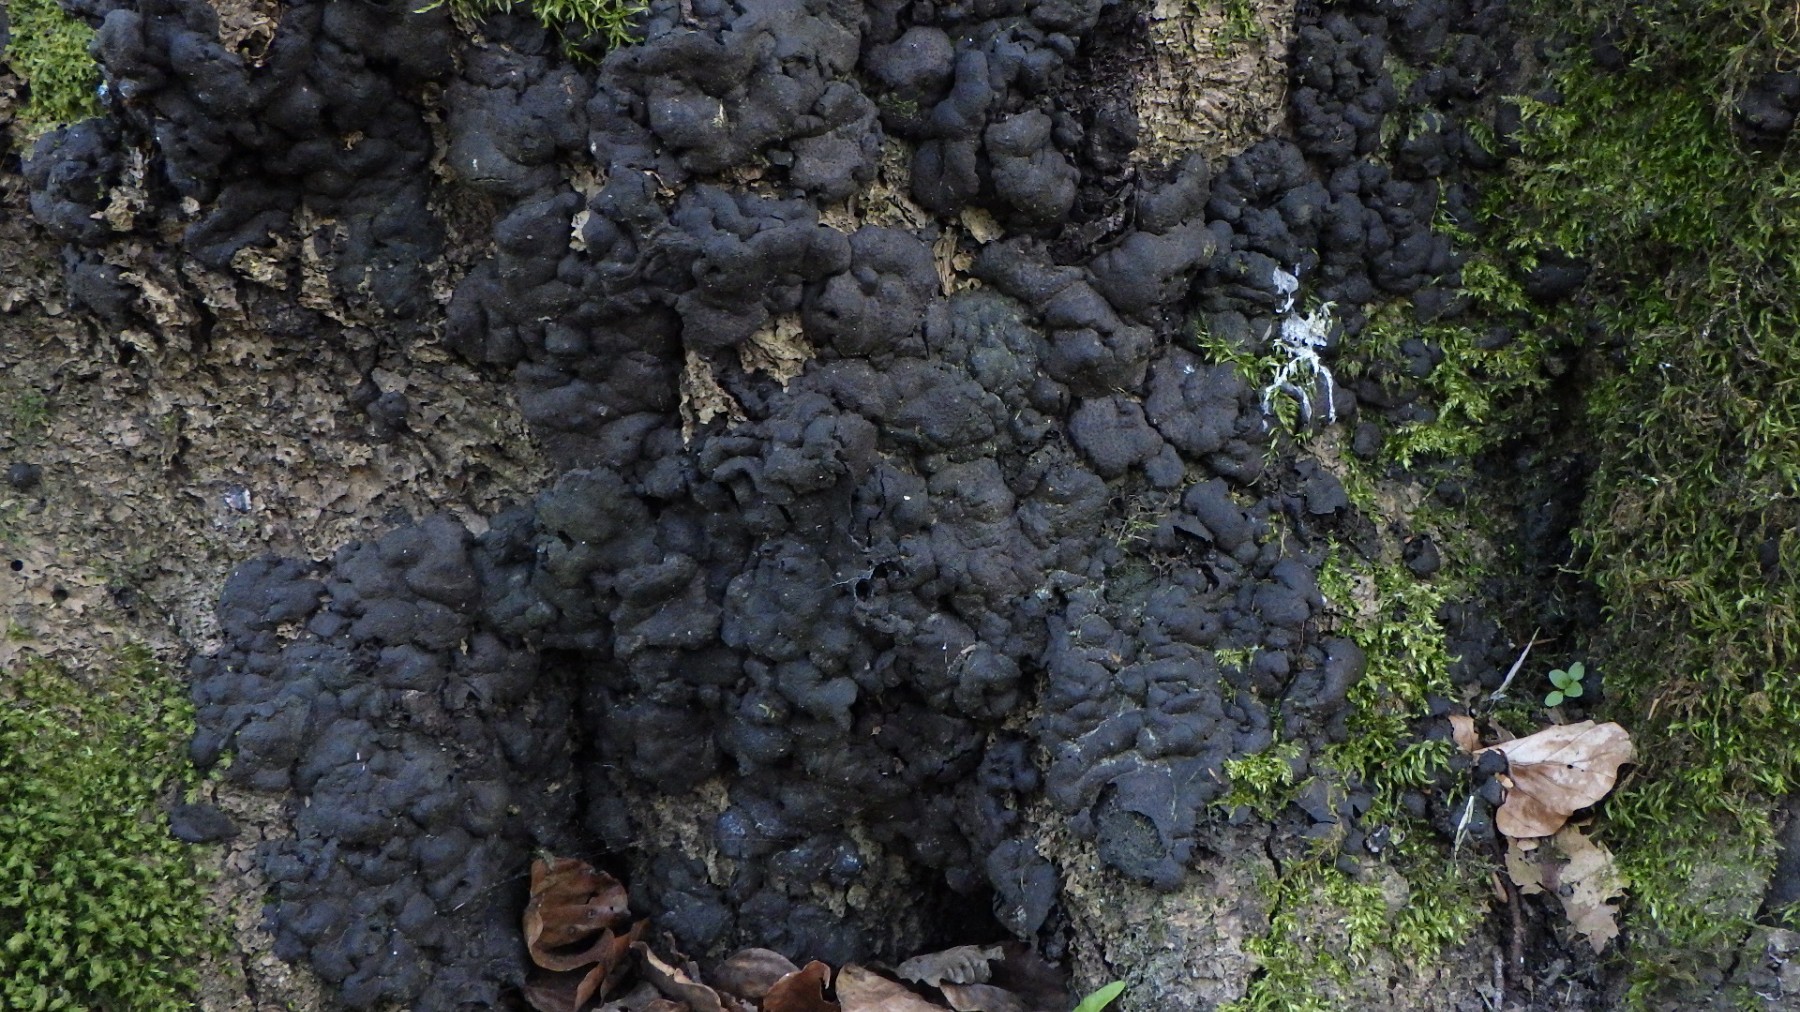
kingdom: Fungi
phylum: Ascomycota
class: Sordariomycetes
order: Xylariales
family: Xylariaceae
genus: Kretzschmaria
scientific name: Kretzschmaria deusta
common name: stor kulsvamp
